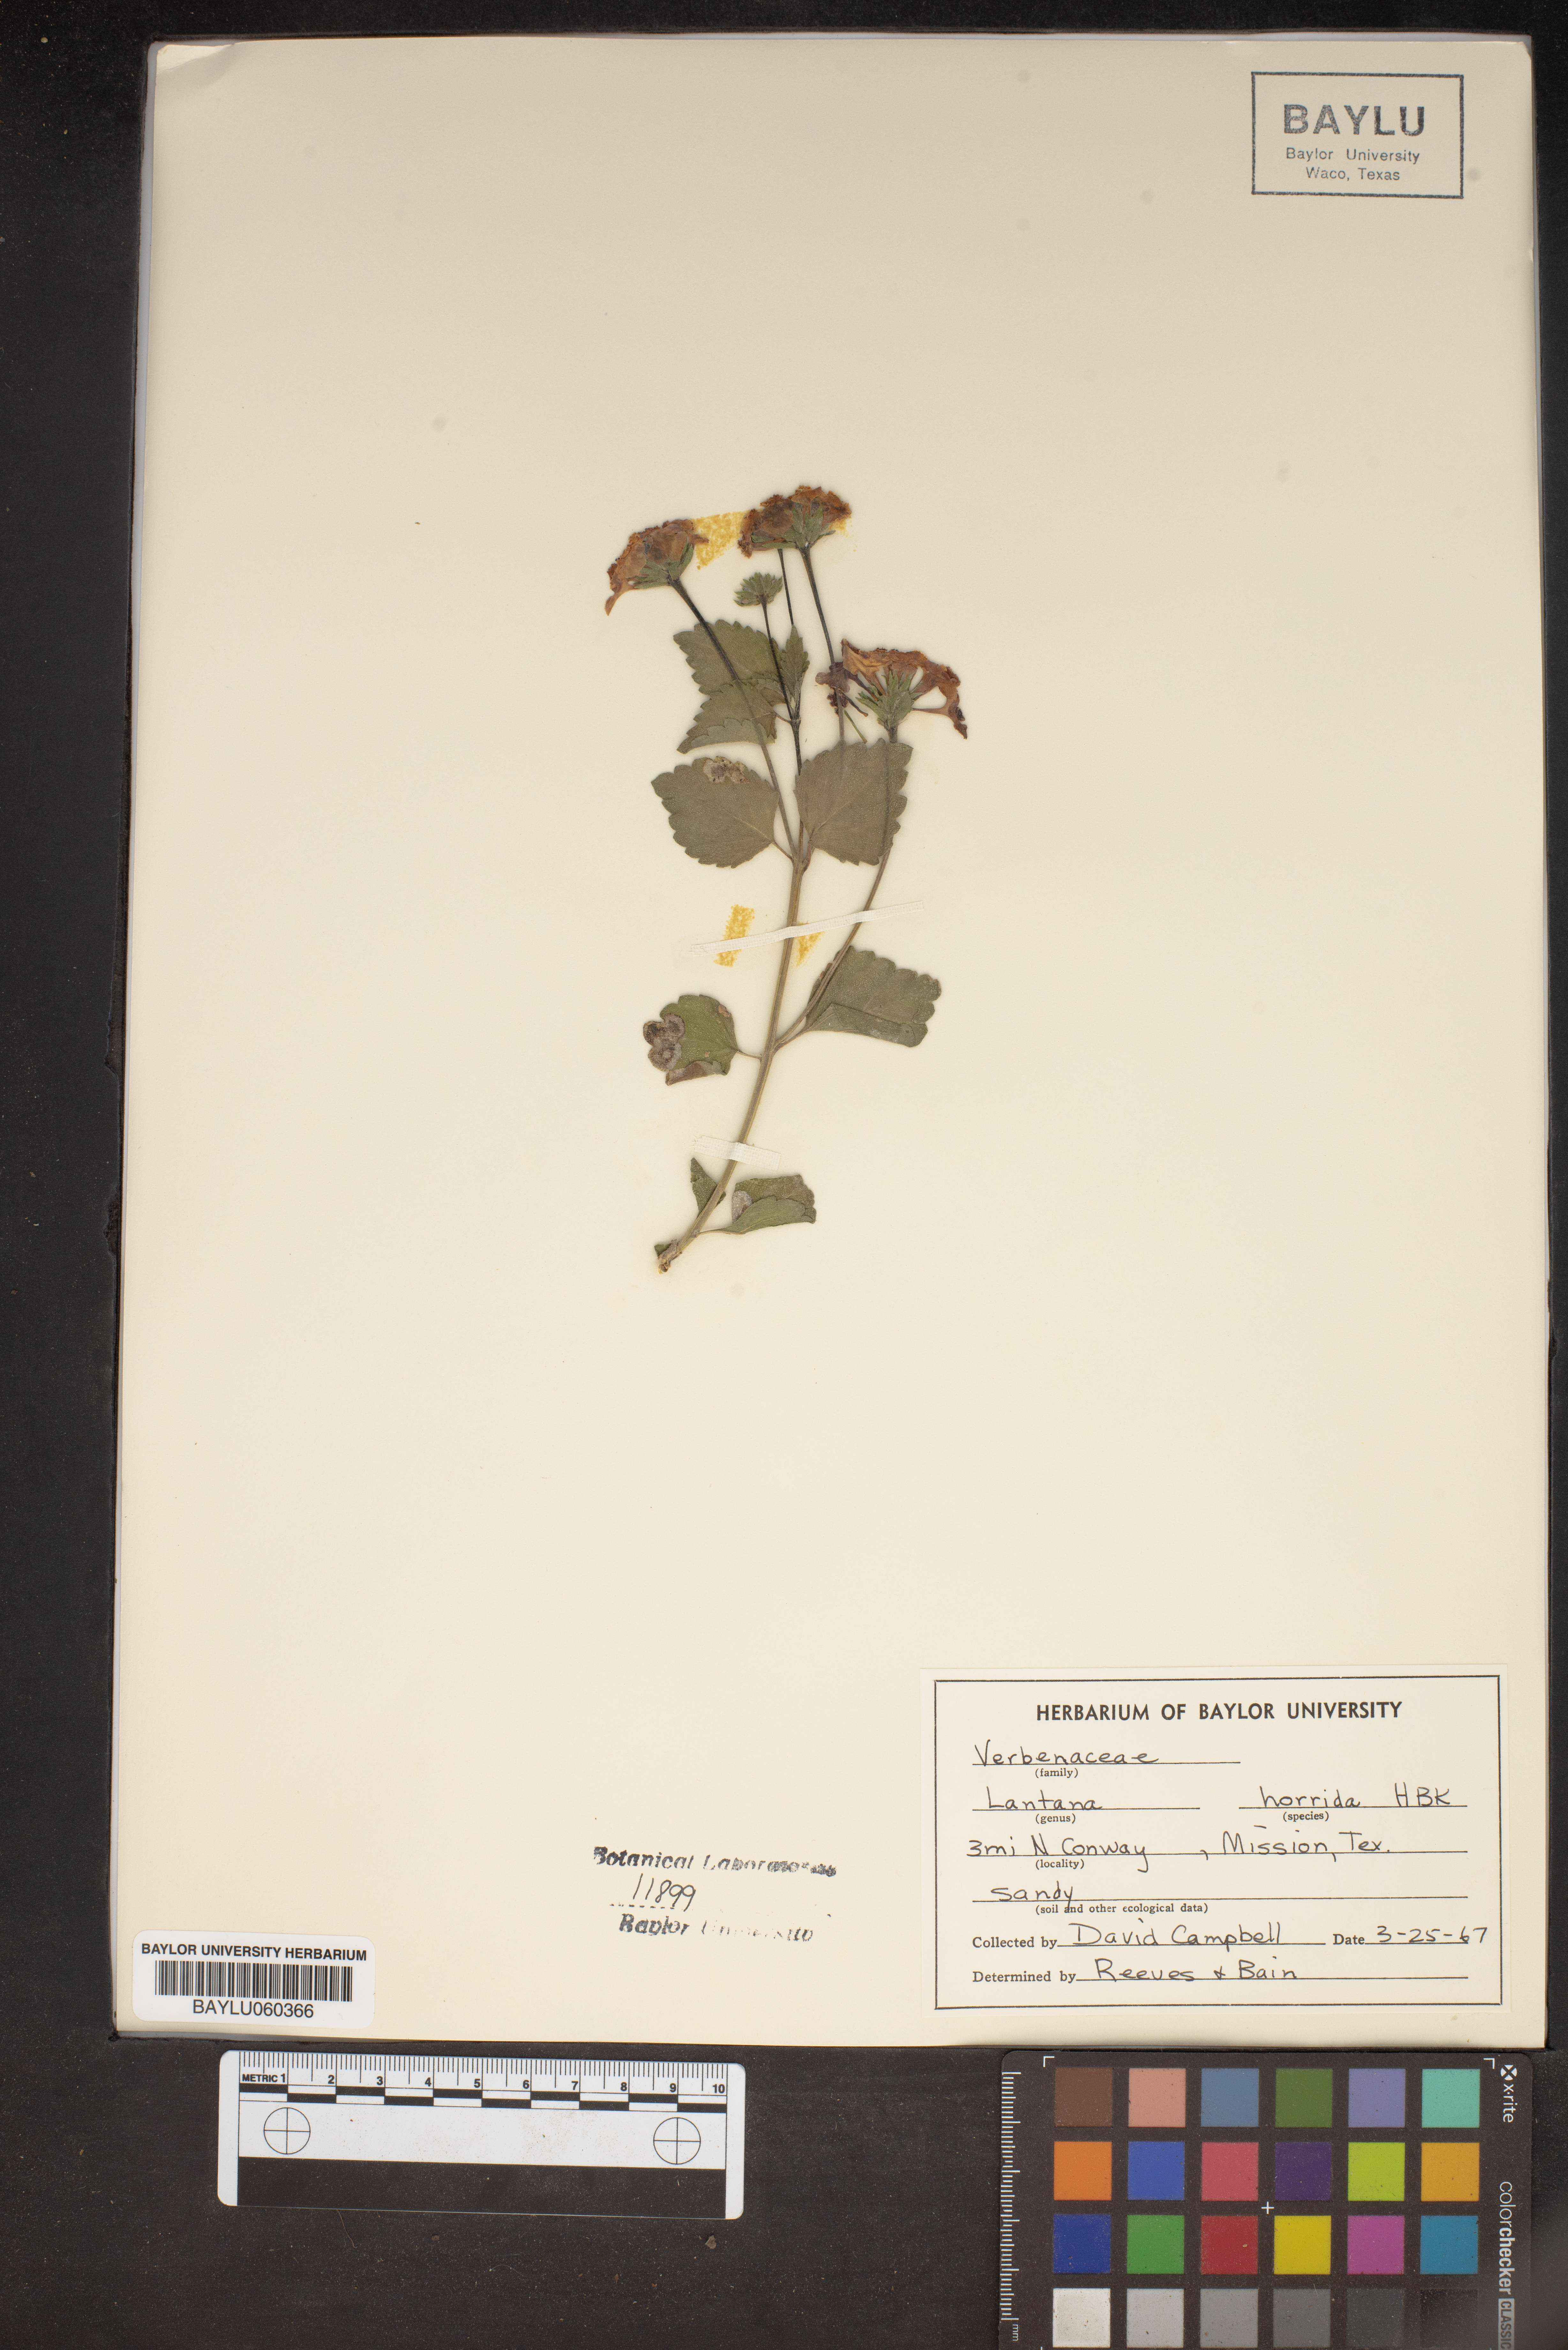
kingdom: Plantae
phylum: Tracheophyta
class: Magnoliopsida
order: Lamiales
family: Verbenaceae
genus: Lantana
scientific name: Lantana horrida
